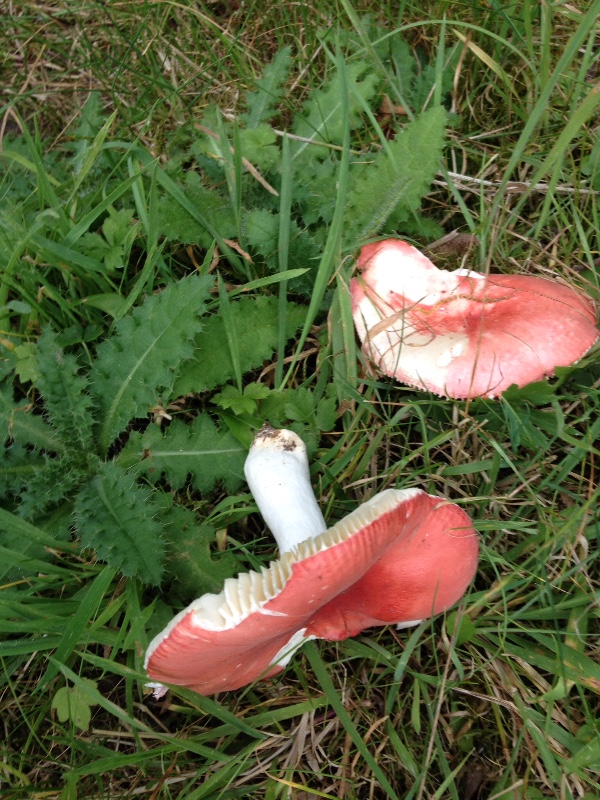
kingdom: Fungi
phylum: Basidiomycota
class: Agaricomycetes
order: Russulales
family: Russulaceae
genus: Russula
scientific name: Russula pseudointegra
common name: cinnoberrød skørhat
